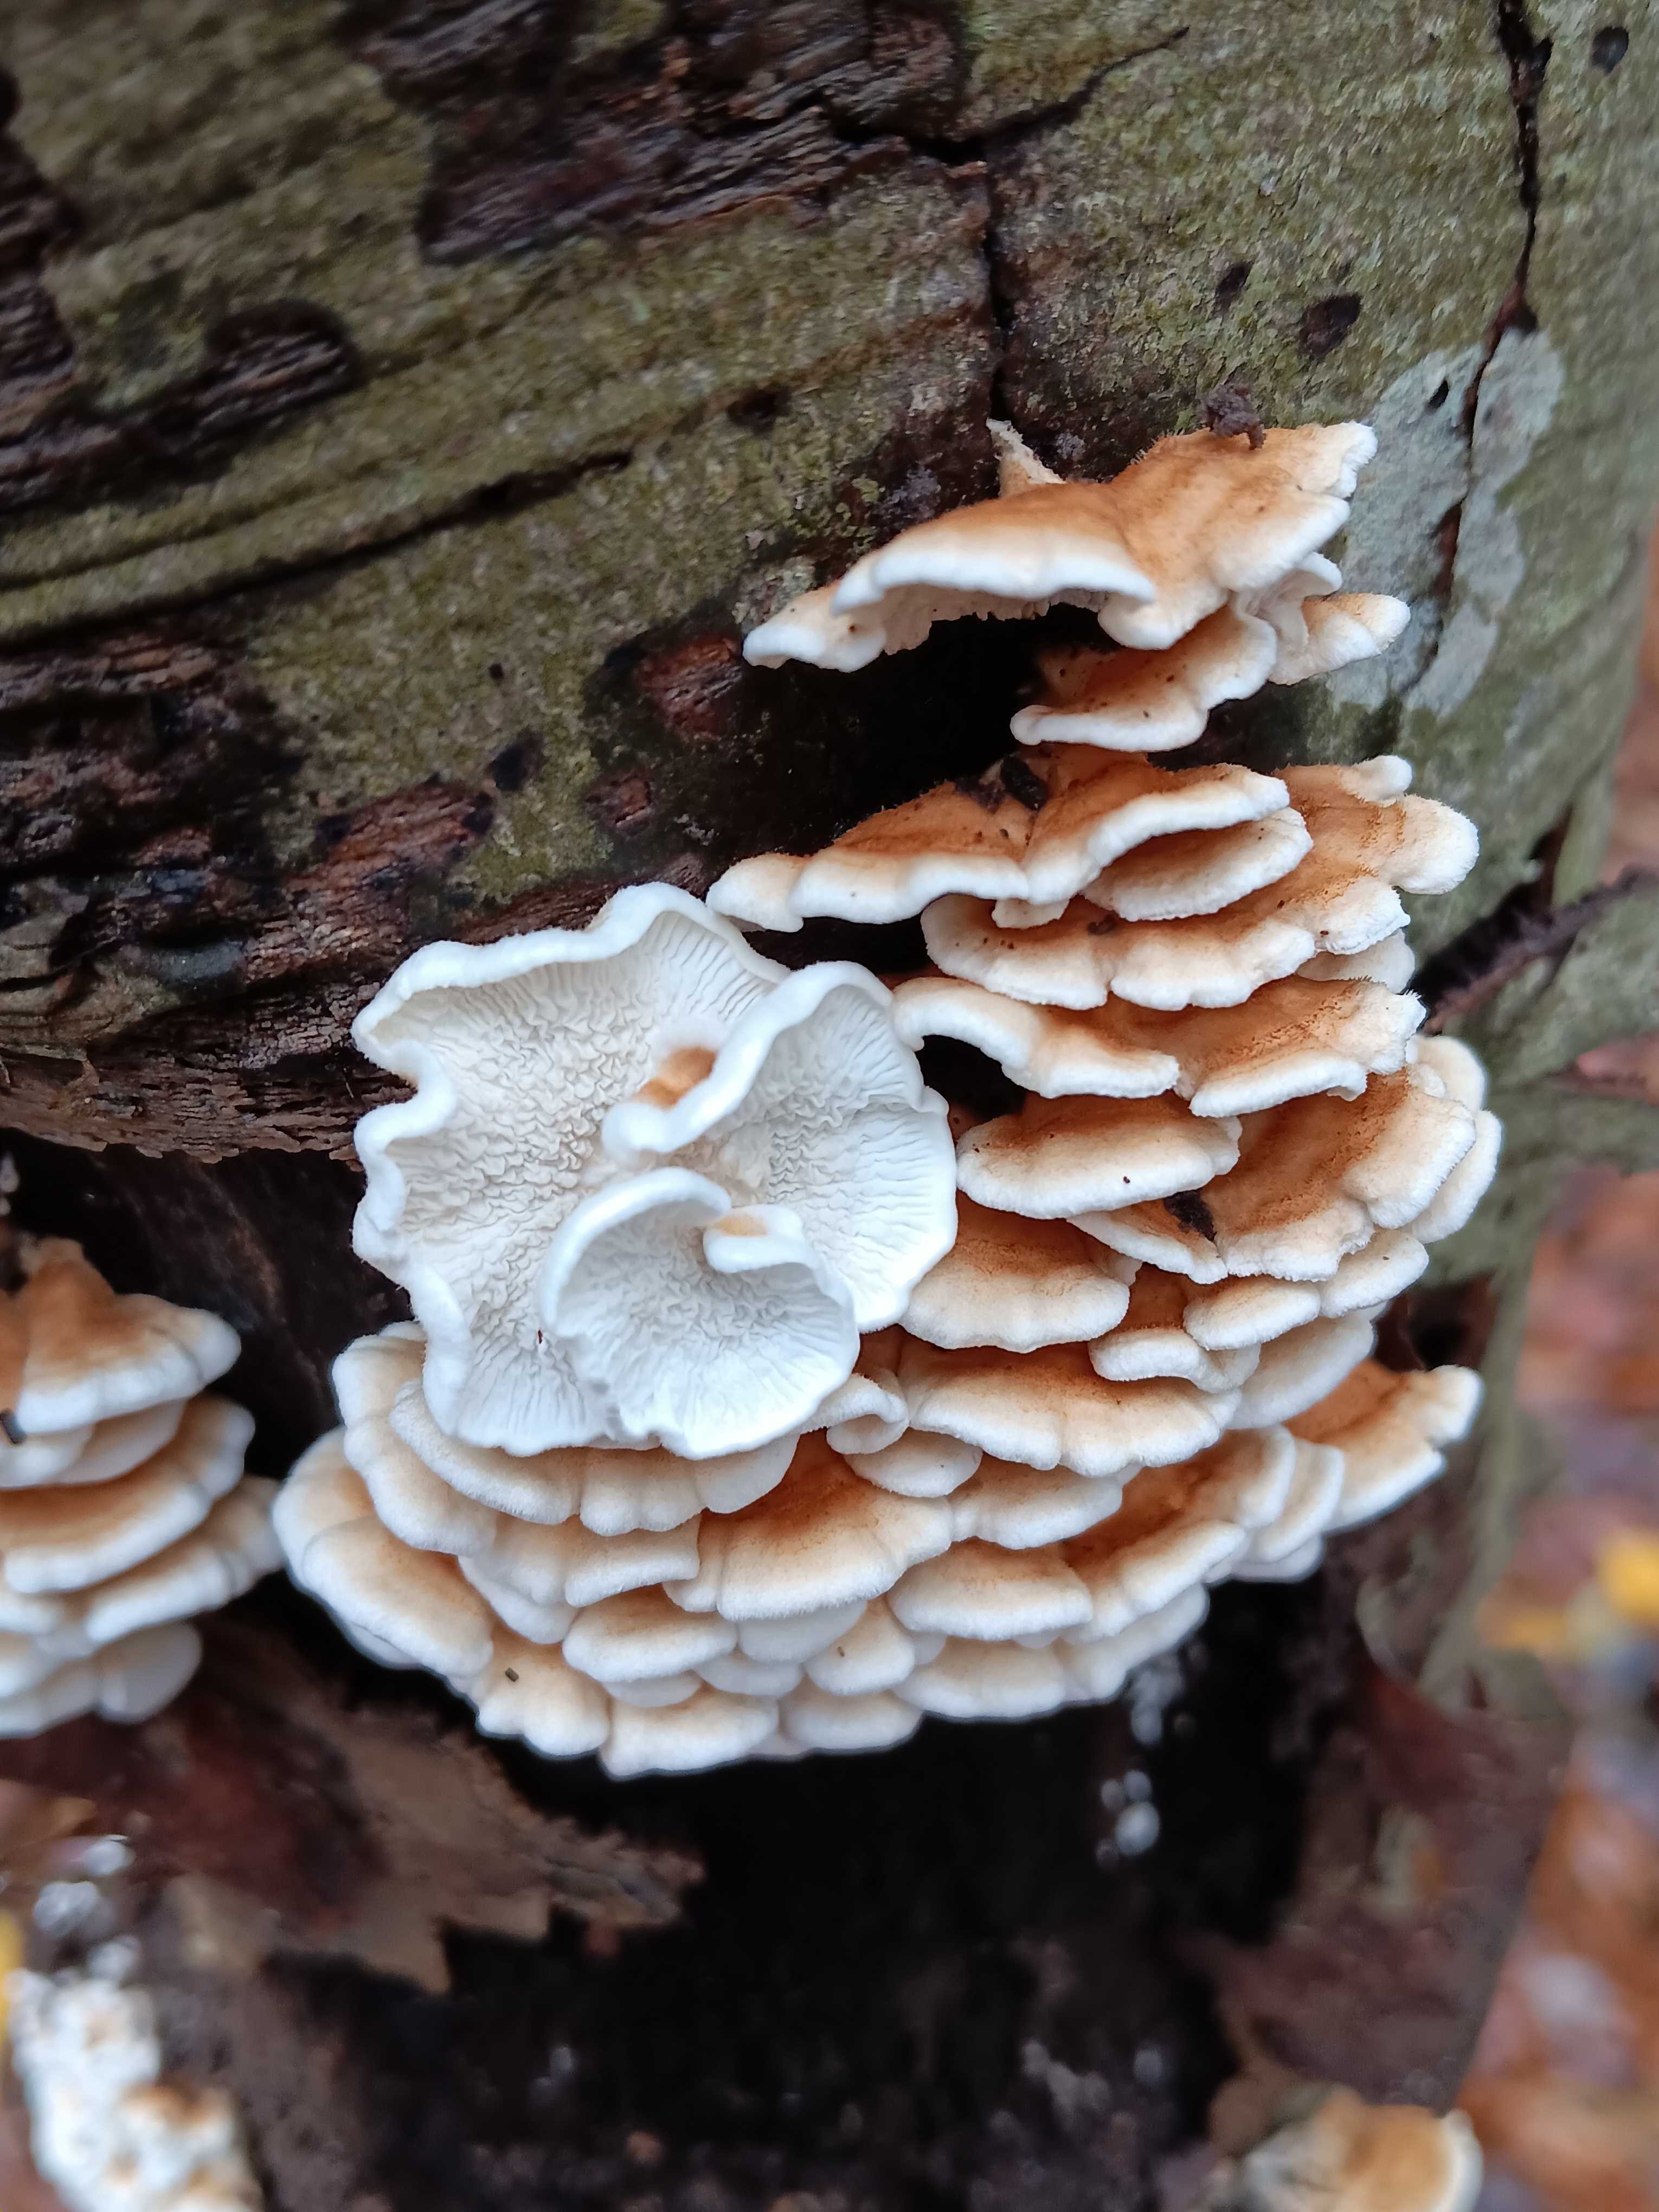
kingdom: Fungi
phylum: Basidiomycota
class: Agaricomycetes
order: Amylocorticiales
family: Amylocorticiaceae
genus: Plicaturopsis
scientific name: Plicaturopsis crispa
